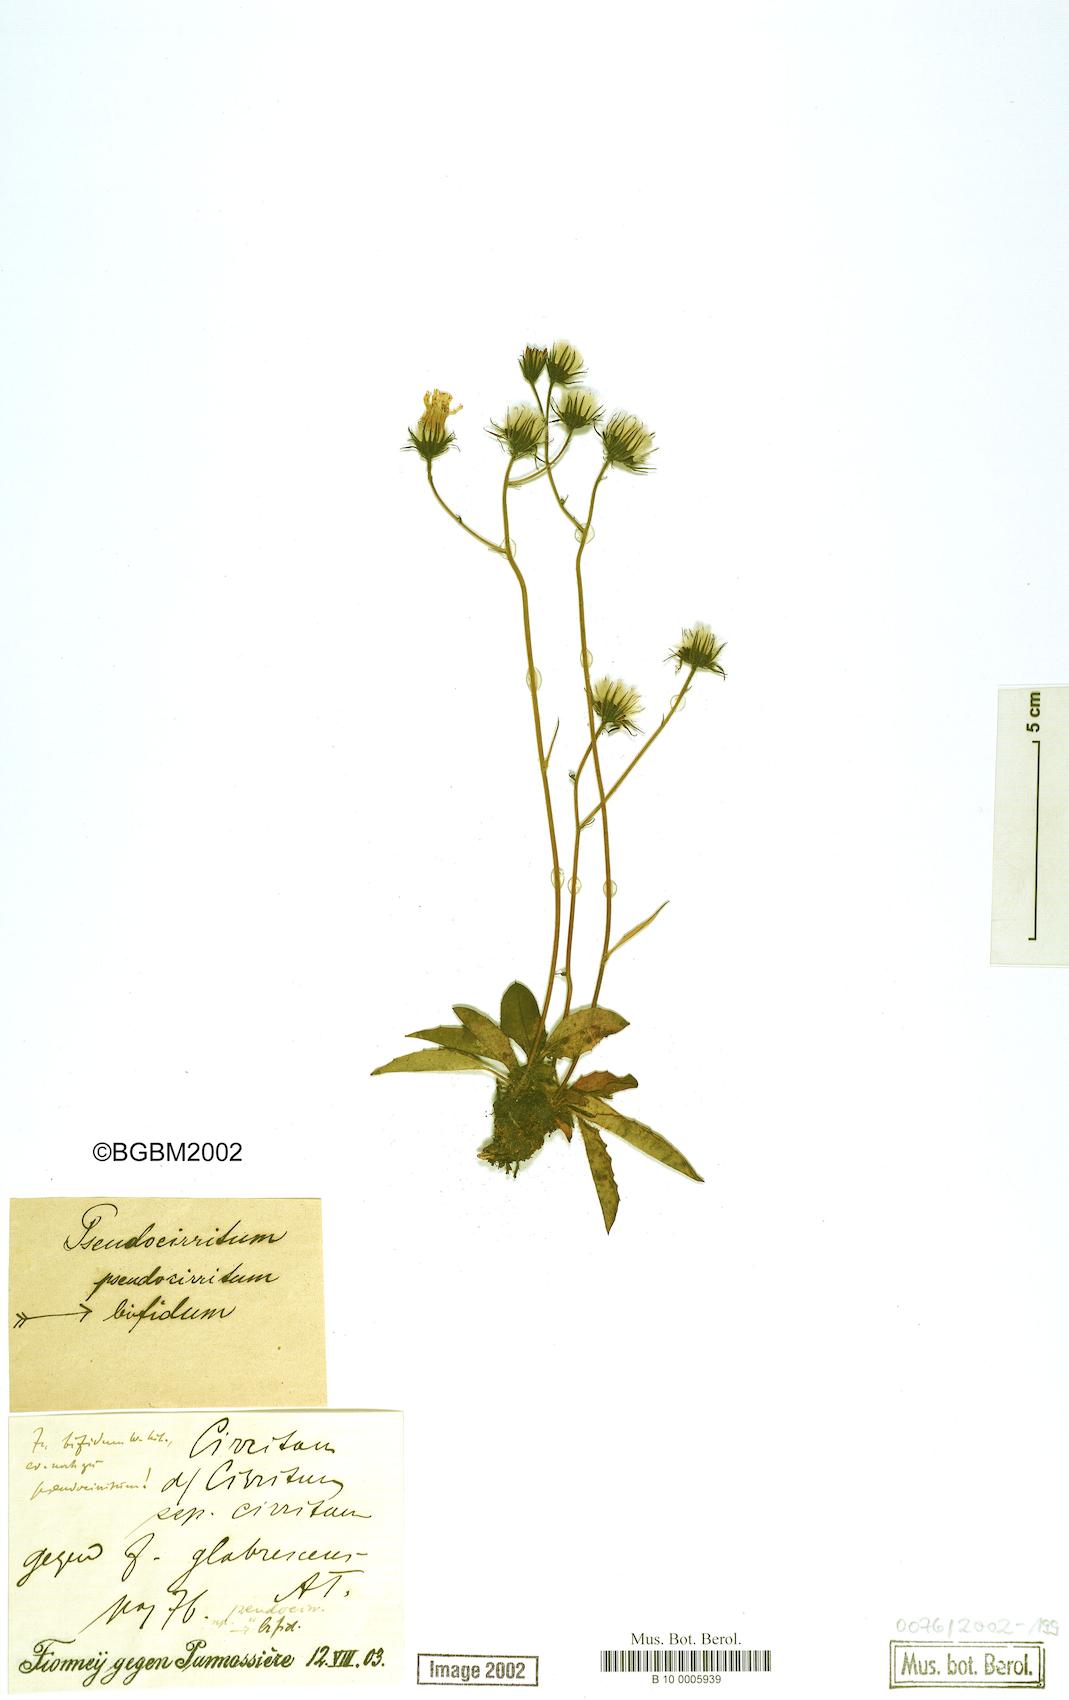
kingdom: Plantae
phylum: Tracheophyta
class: Magnoliopsida
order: Asterales
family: Asteraceae
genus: Hieracium
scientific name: Hieracium bifidum
